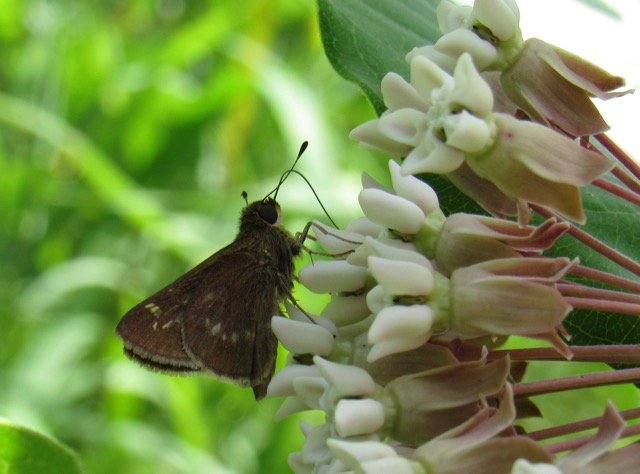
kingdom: Animalia
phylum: Arthropoda
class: Insecta
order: Lepidoptera
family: Hesperiidae
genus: Vernia
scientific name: Vernia verna
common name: Little Glassywing
